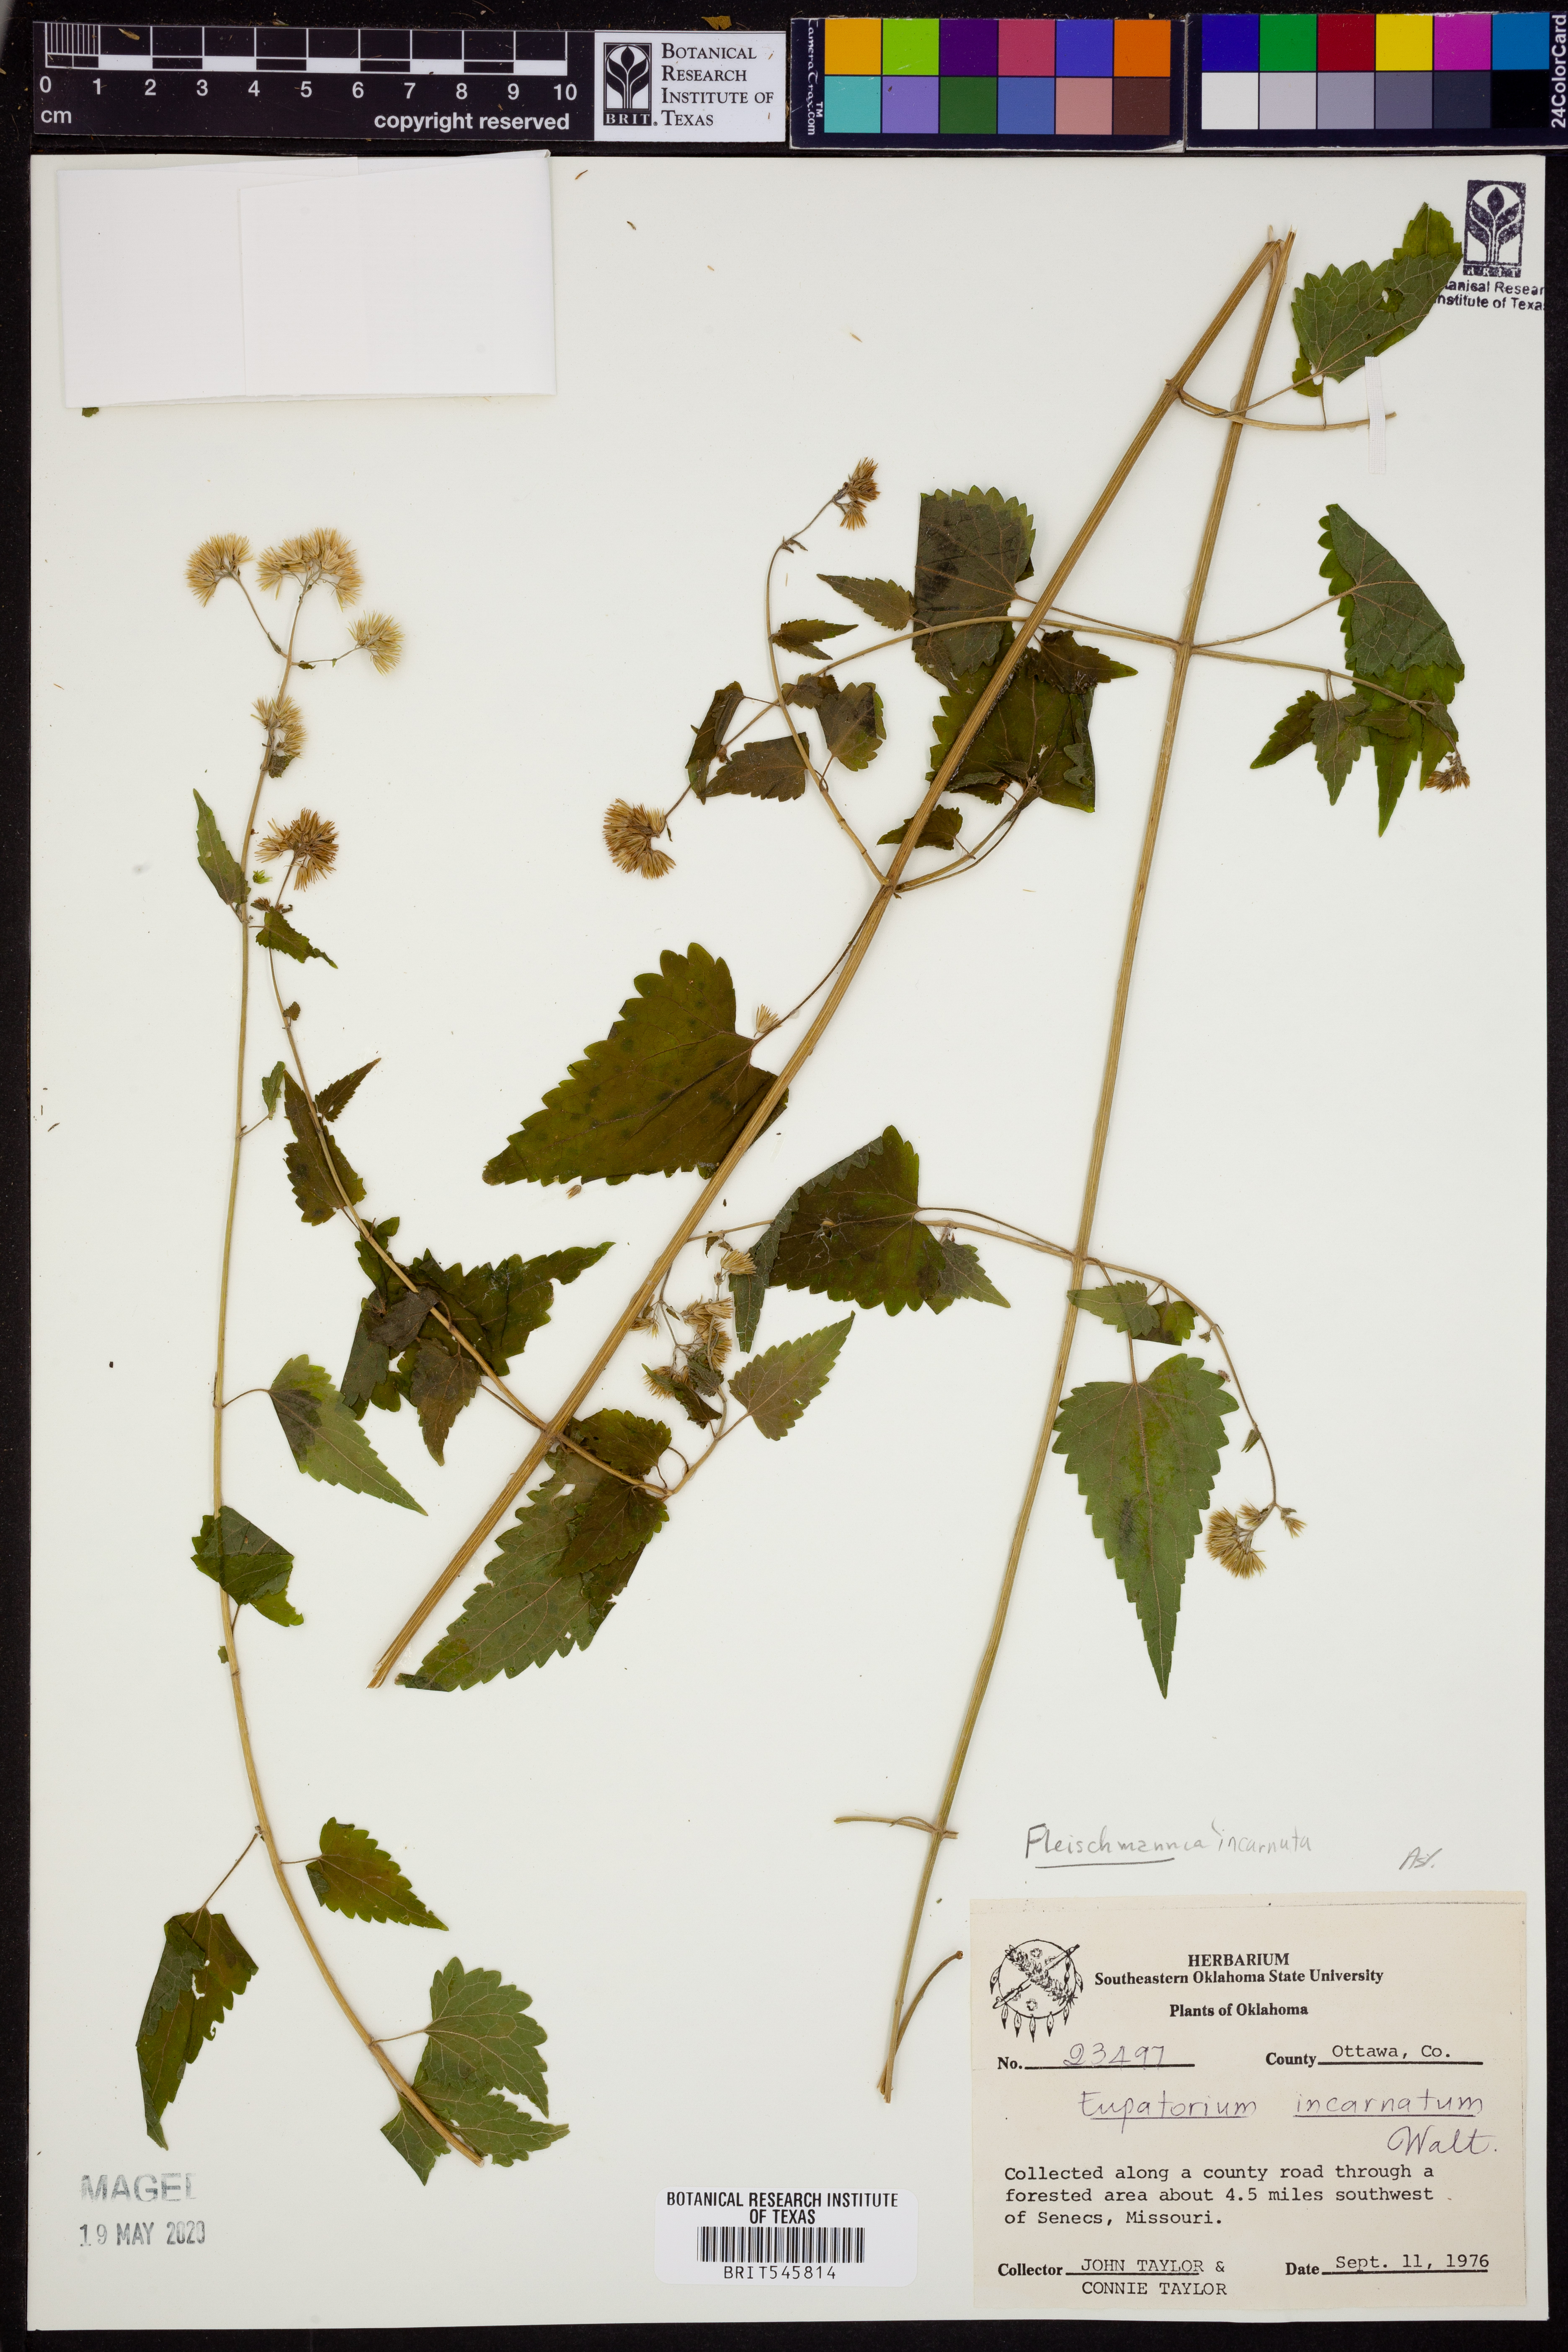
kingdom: Plantae
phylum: Tracheophyta
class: Magnoliopsida
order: Asterales
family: Asteraceae
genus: Fleischmannia
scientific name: Fleischmannia incarnata
